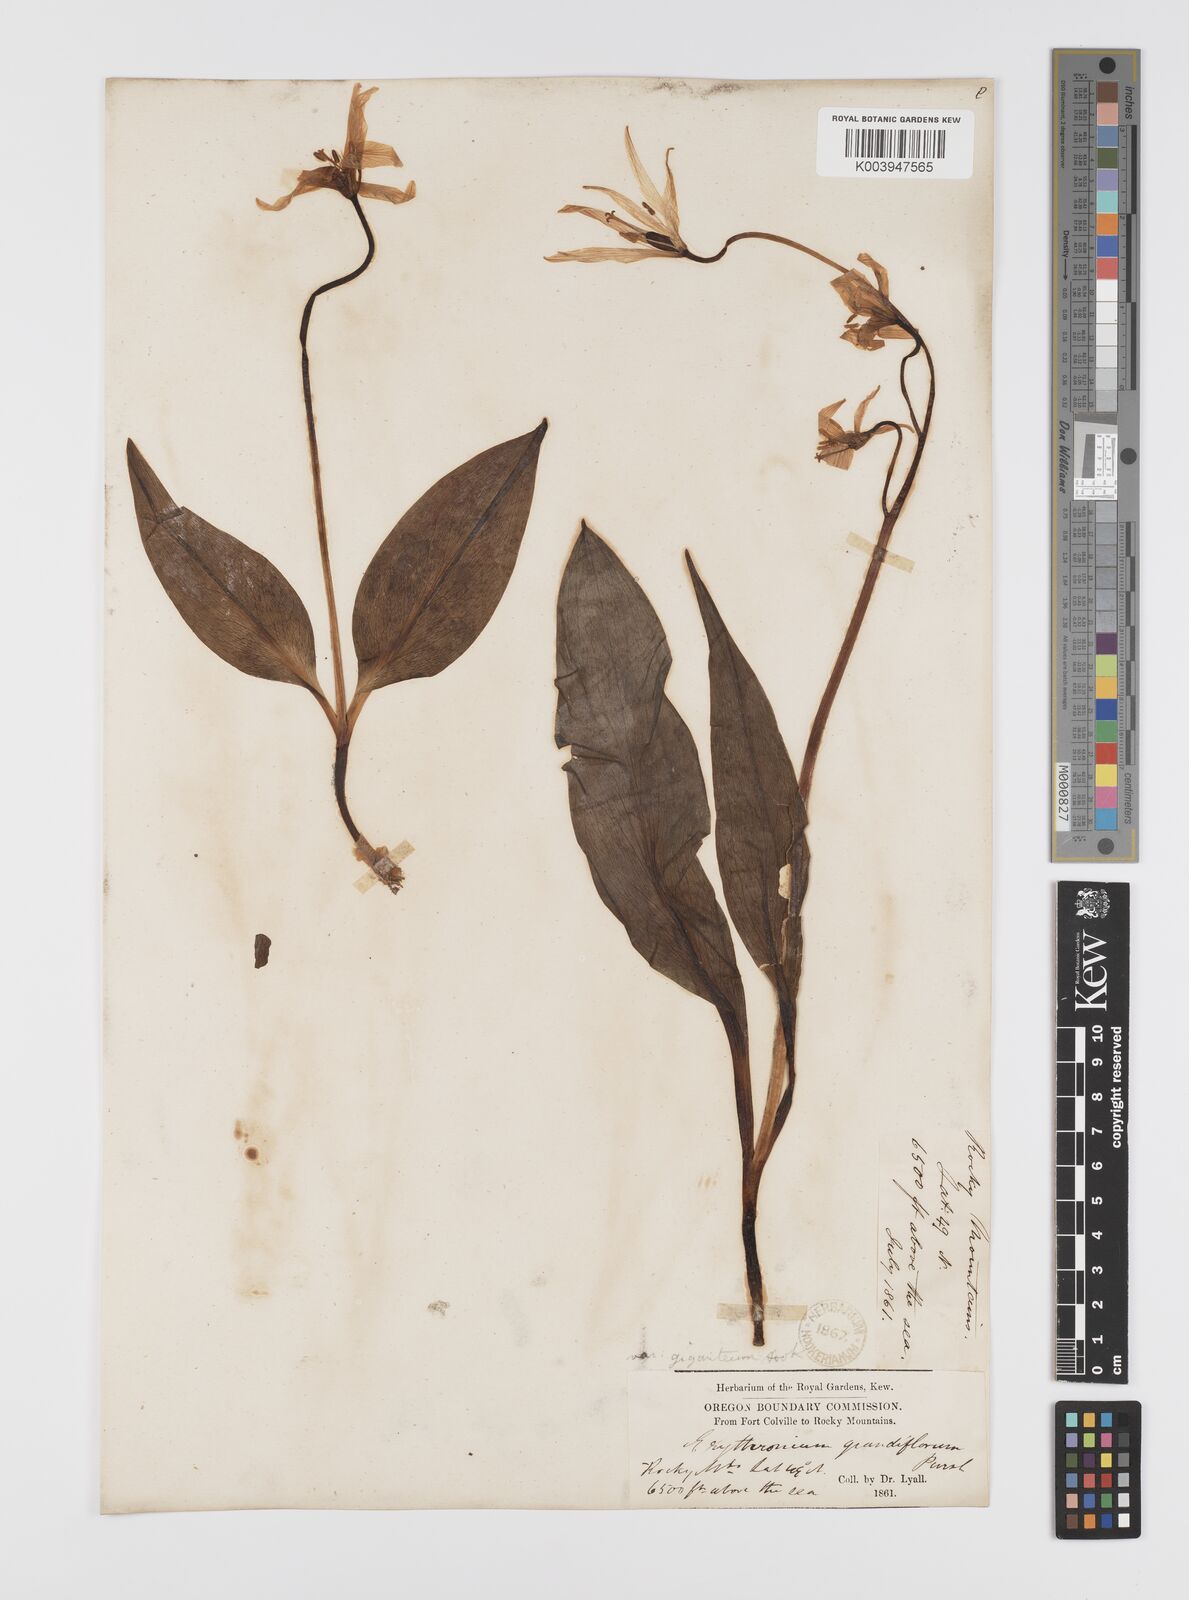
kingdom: Plantae
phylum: Tracheophyta
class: Liliopsida
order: Liliales
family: Liliaceae
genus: Erythronium
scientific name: Erythronium grandiflorum
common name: Avalanche-lily
